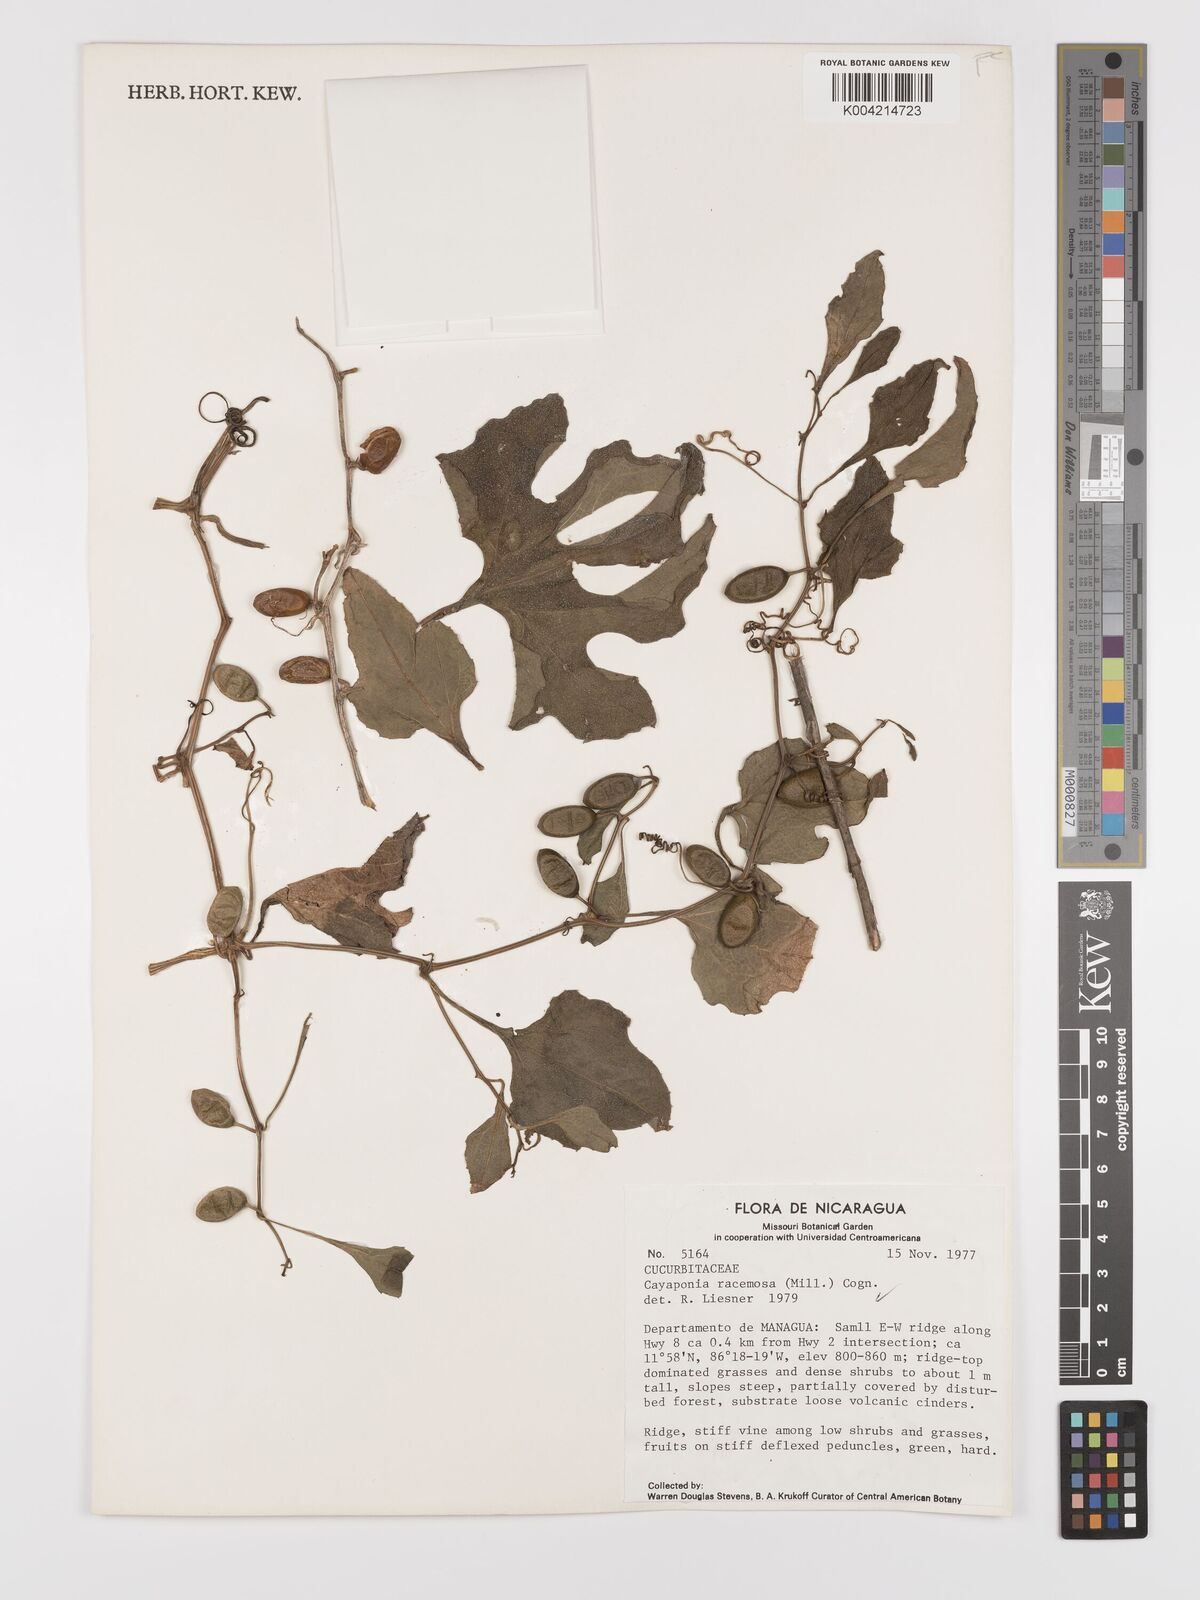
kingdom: Plantae
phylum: Tracheophyta
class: Magnoliopsida
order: Cucurbitales
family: Cucurbitaceae
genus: Cayaponia
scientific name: Cayaponia racemosa
